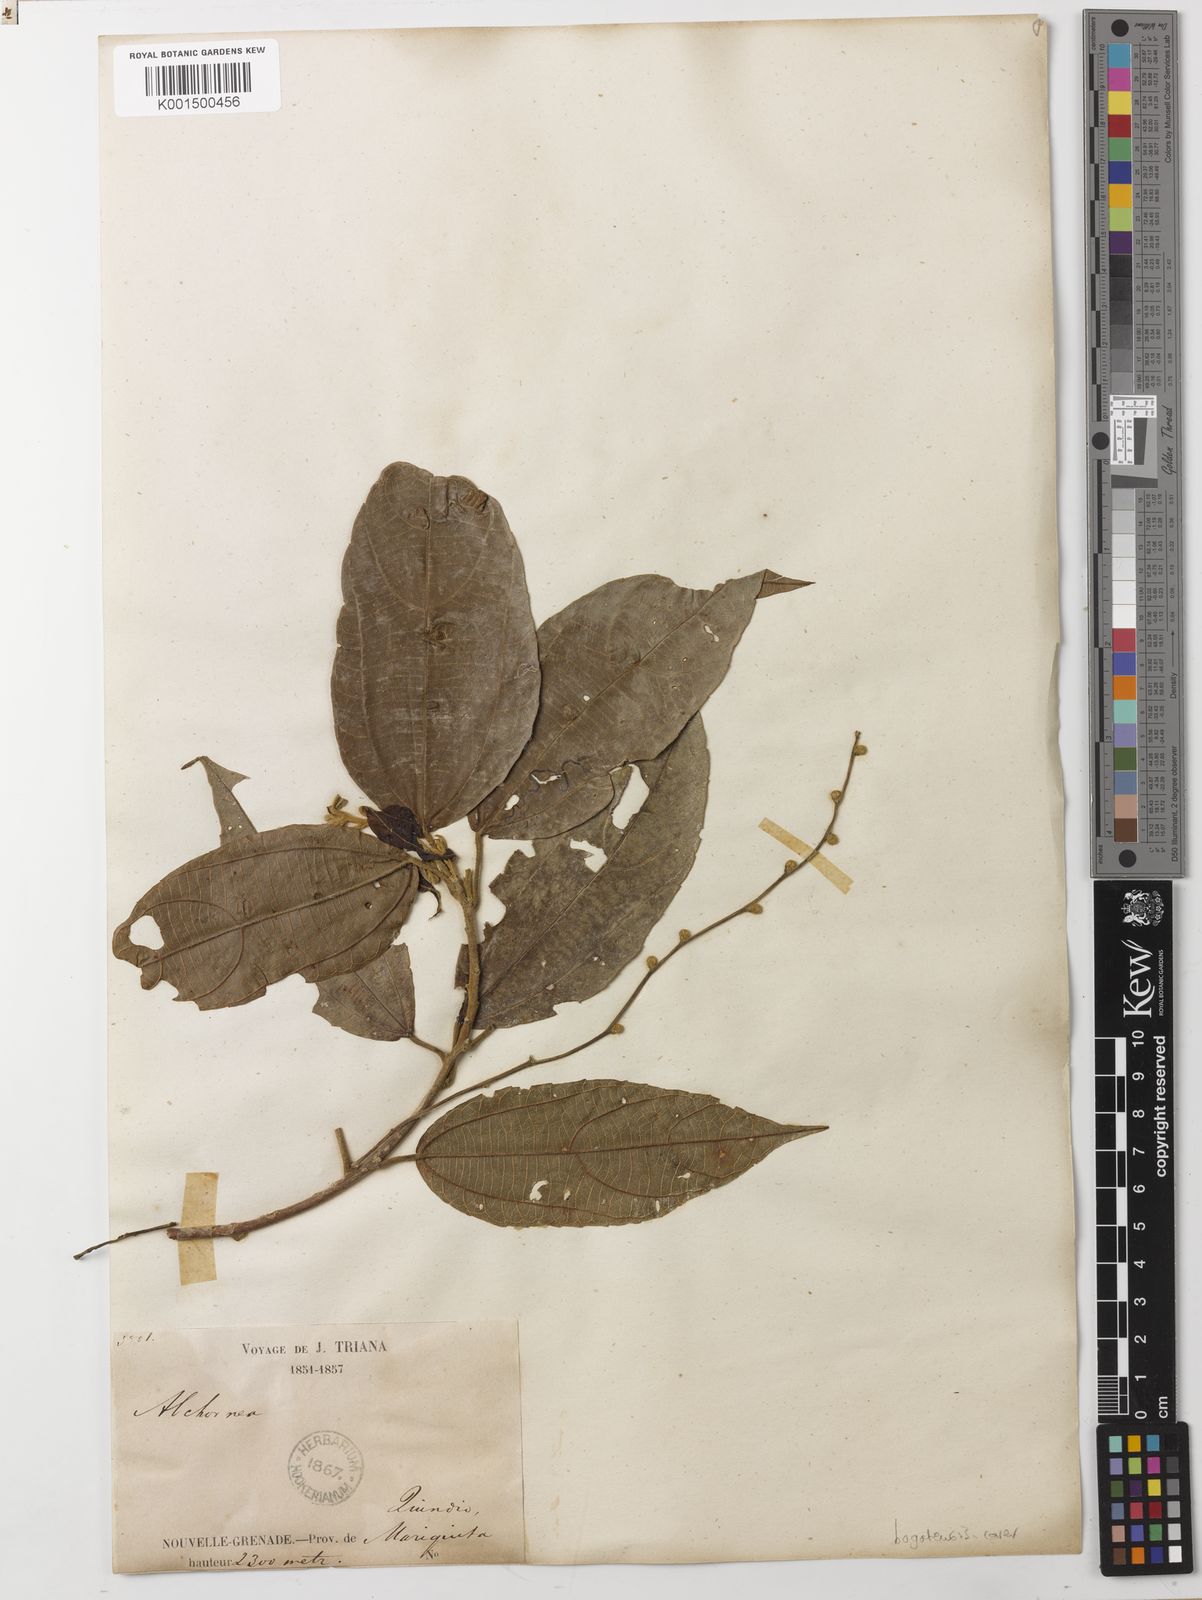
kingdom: Plantae
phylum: Tracheophyta
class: Magnoliopsida
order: Malpighiales
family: Euphorbiaceae
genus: Alchornea
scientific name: Alchornea bogotensis
